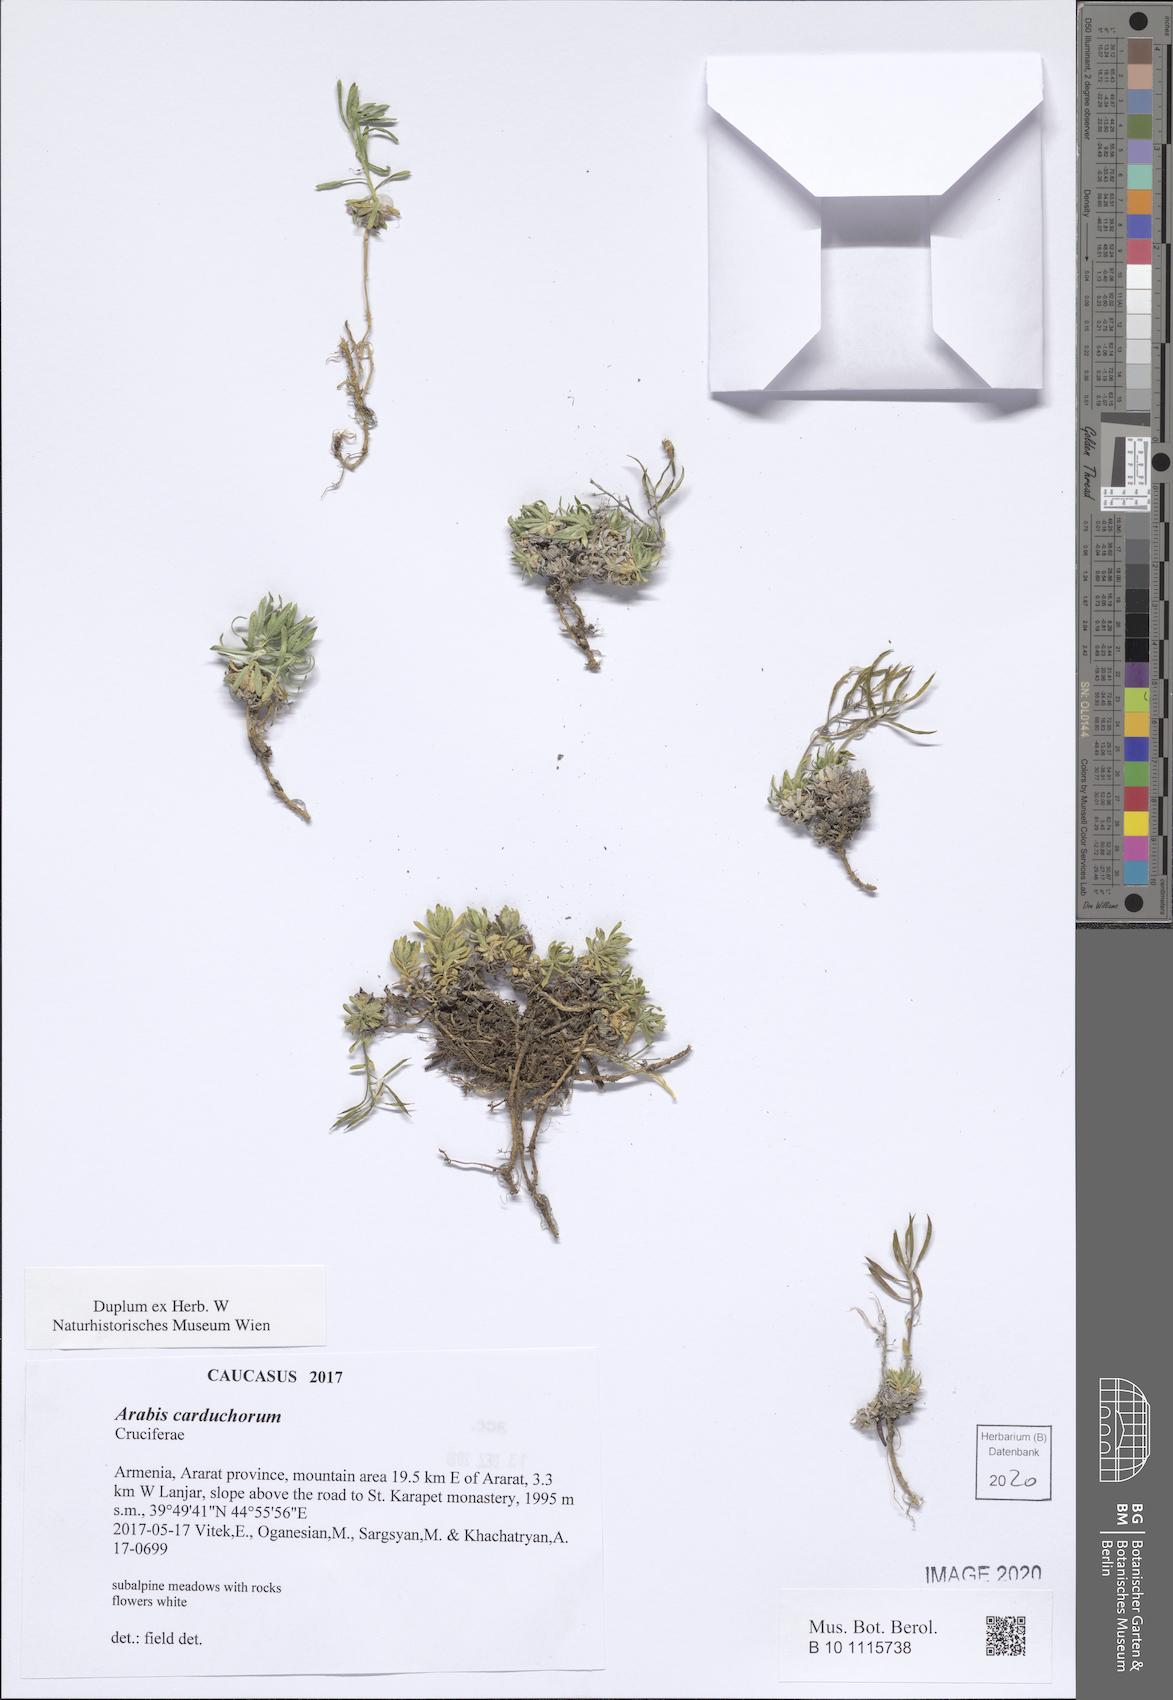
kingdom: Plantae
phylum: Tracheophyta
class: Magnoliopsida
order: Brassicales
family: Brassicaceae
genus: Arabis
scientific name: Arabis carduchorum
